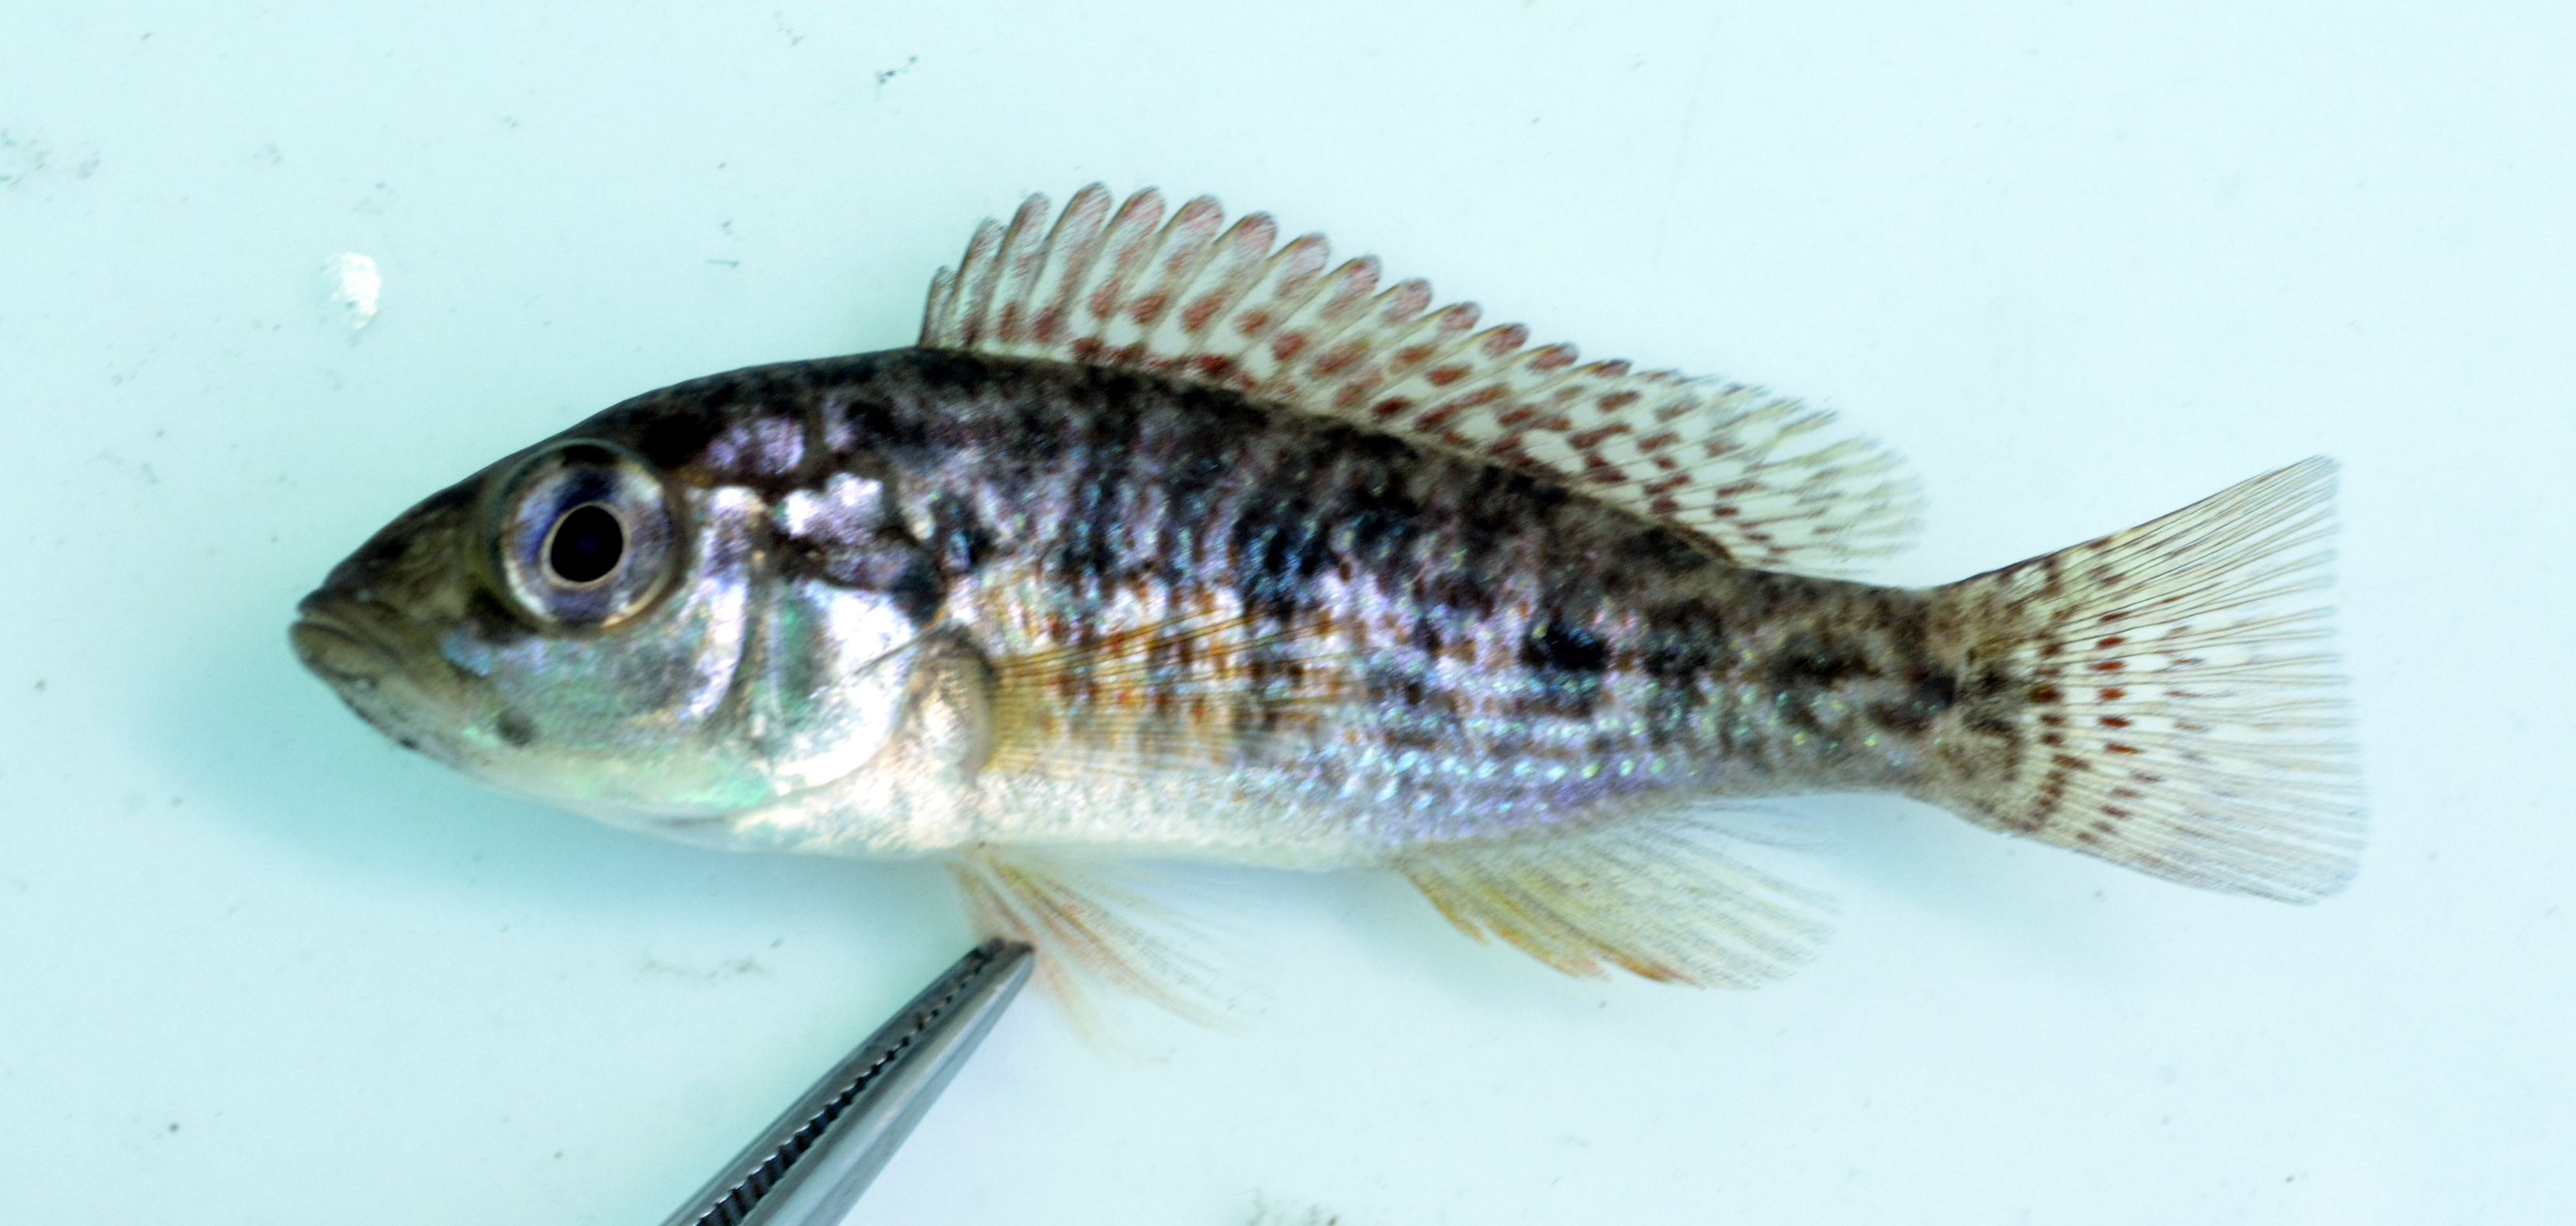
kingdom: Animalia
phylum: Chordata
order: Perciformes
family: Cichlidae
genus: Pharyngochromis
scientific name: Pharyngochromis
